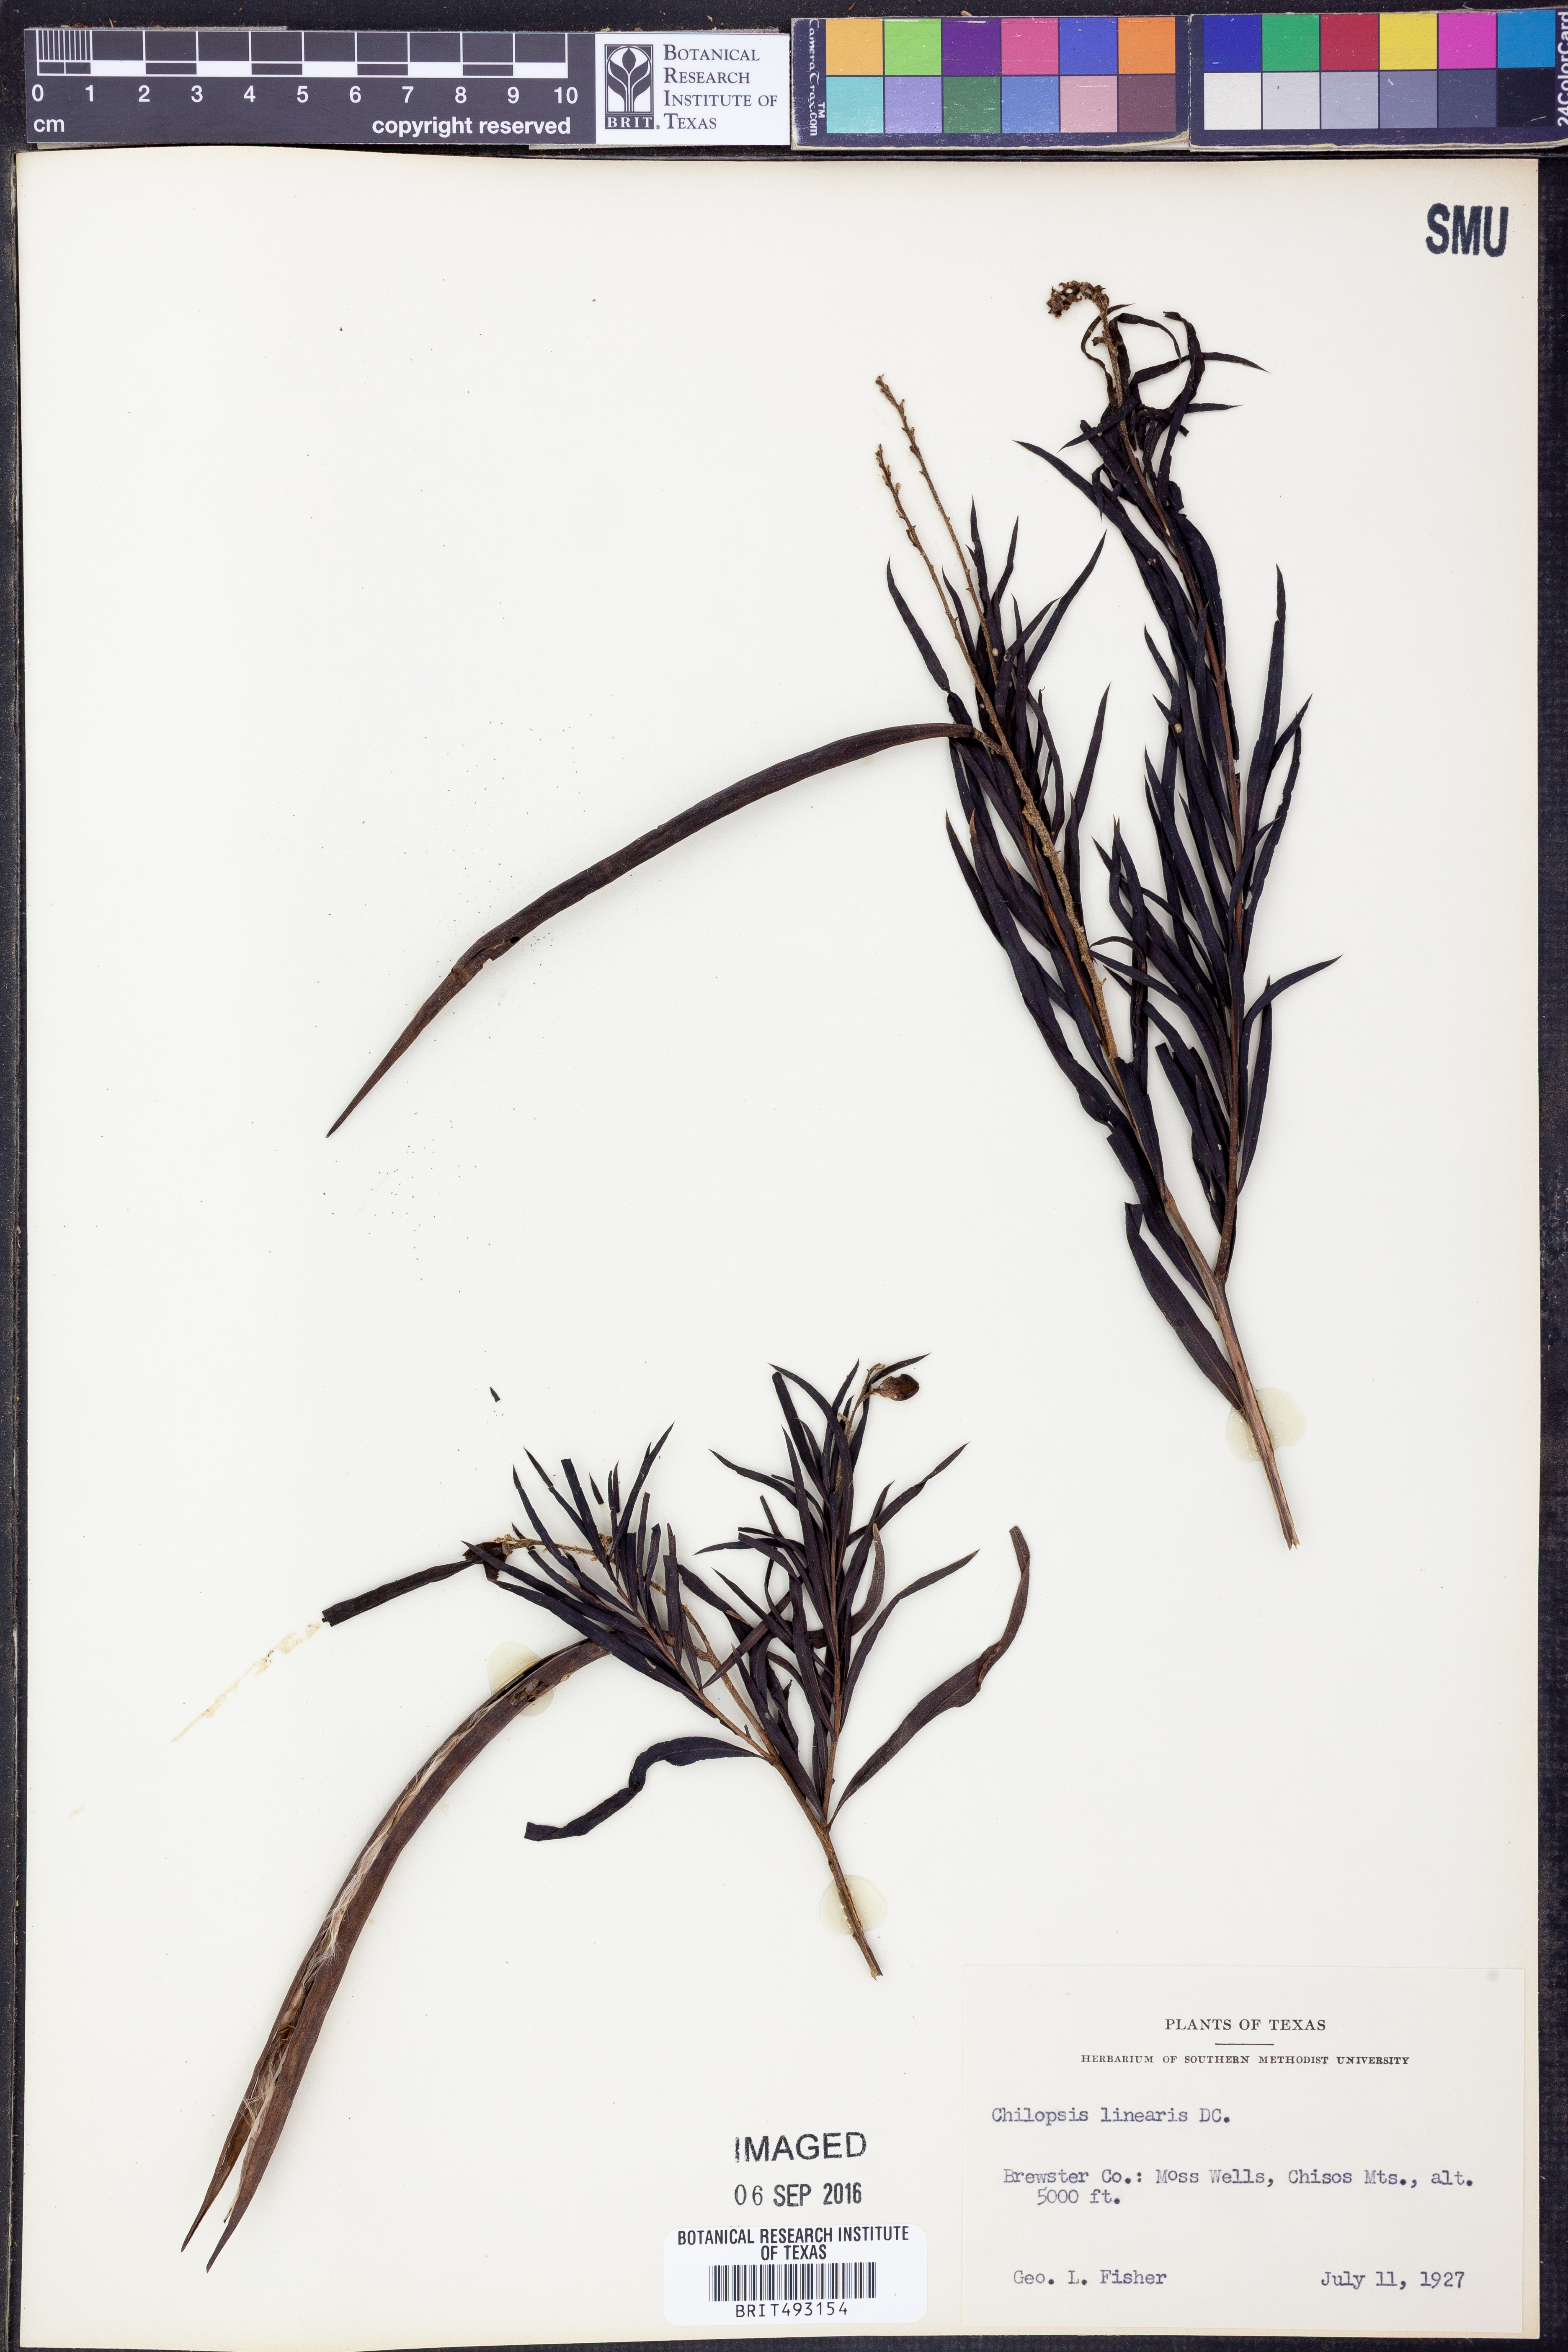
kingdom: Plantae
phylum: Tracheophyta
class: Magnoliopsida
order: Lamiales
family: Bignoniaceae
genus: Chilopsis
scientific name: Chilopsis linearis
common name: Desert-willow
